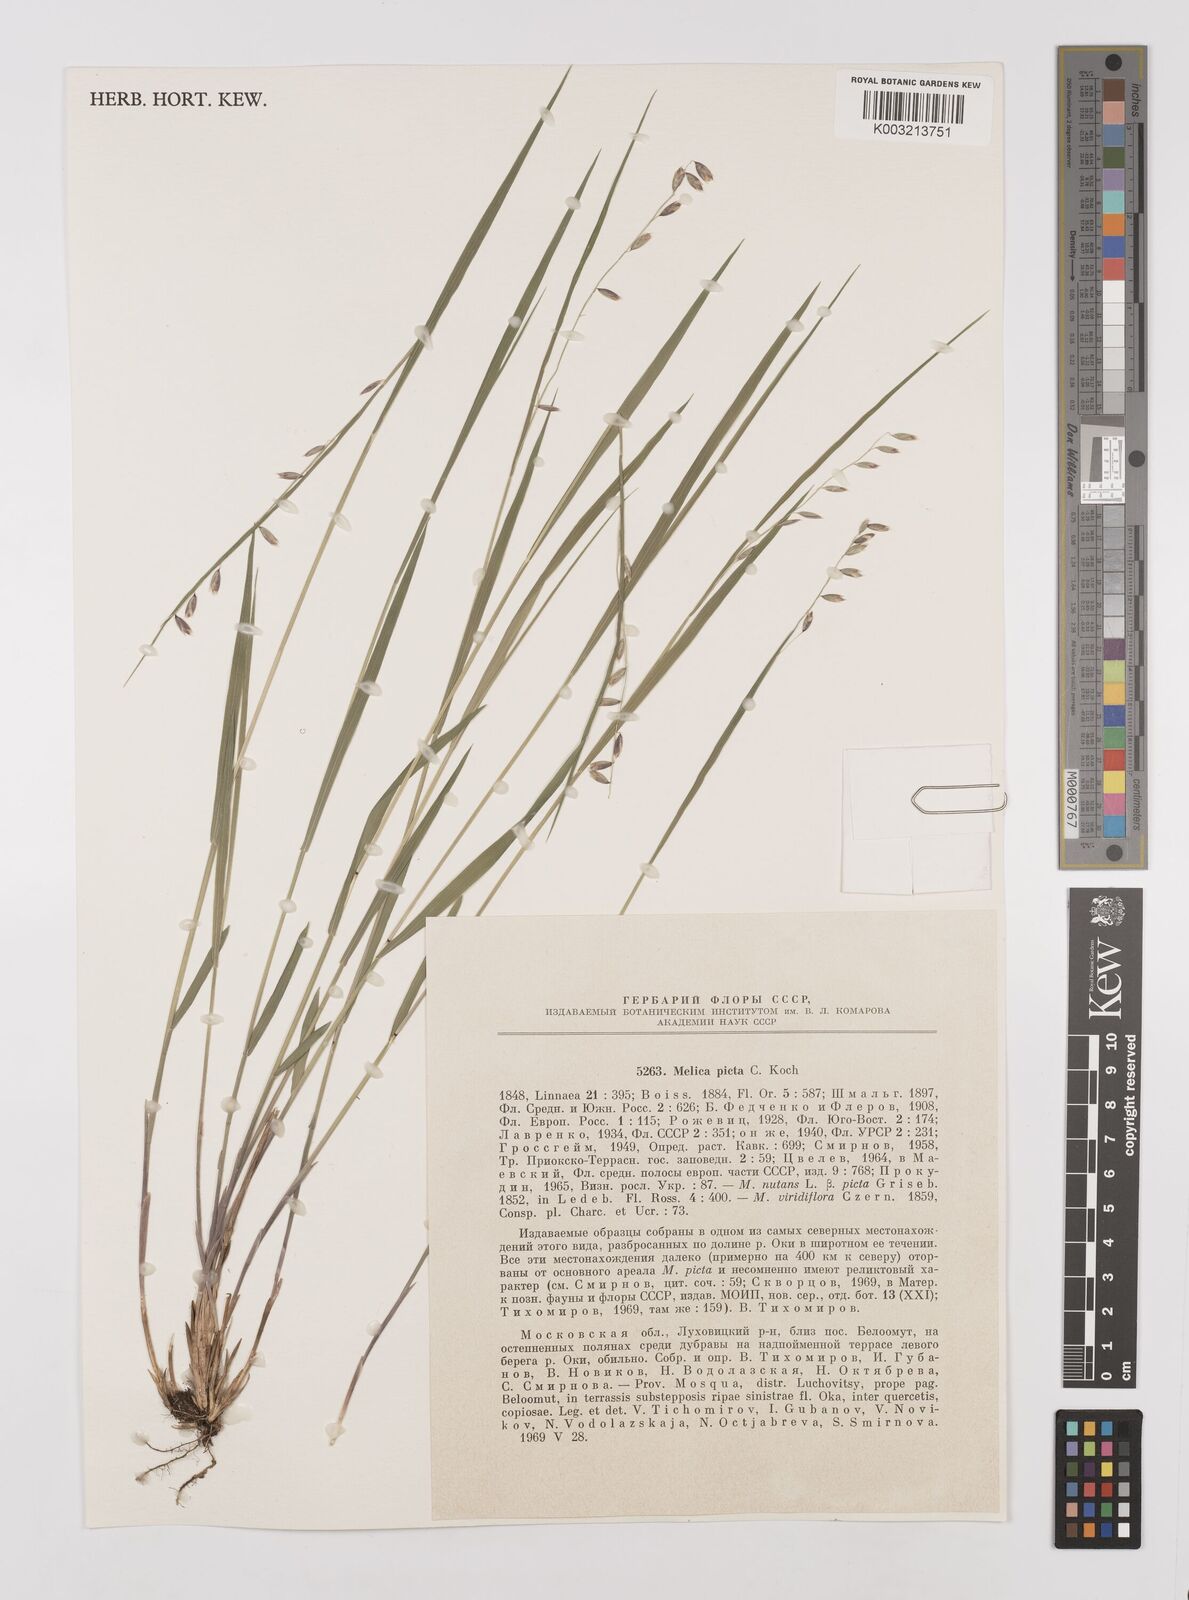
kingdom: Plantae
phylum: Tracheophyta
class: Liliopsida
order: Poales
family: Poaceae
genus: Melica
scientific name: Melica picta
